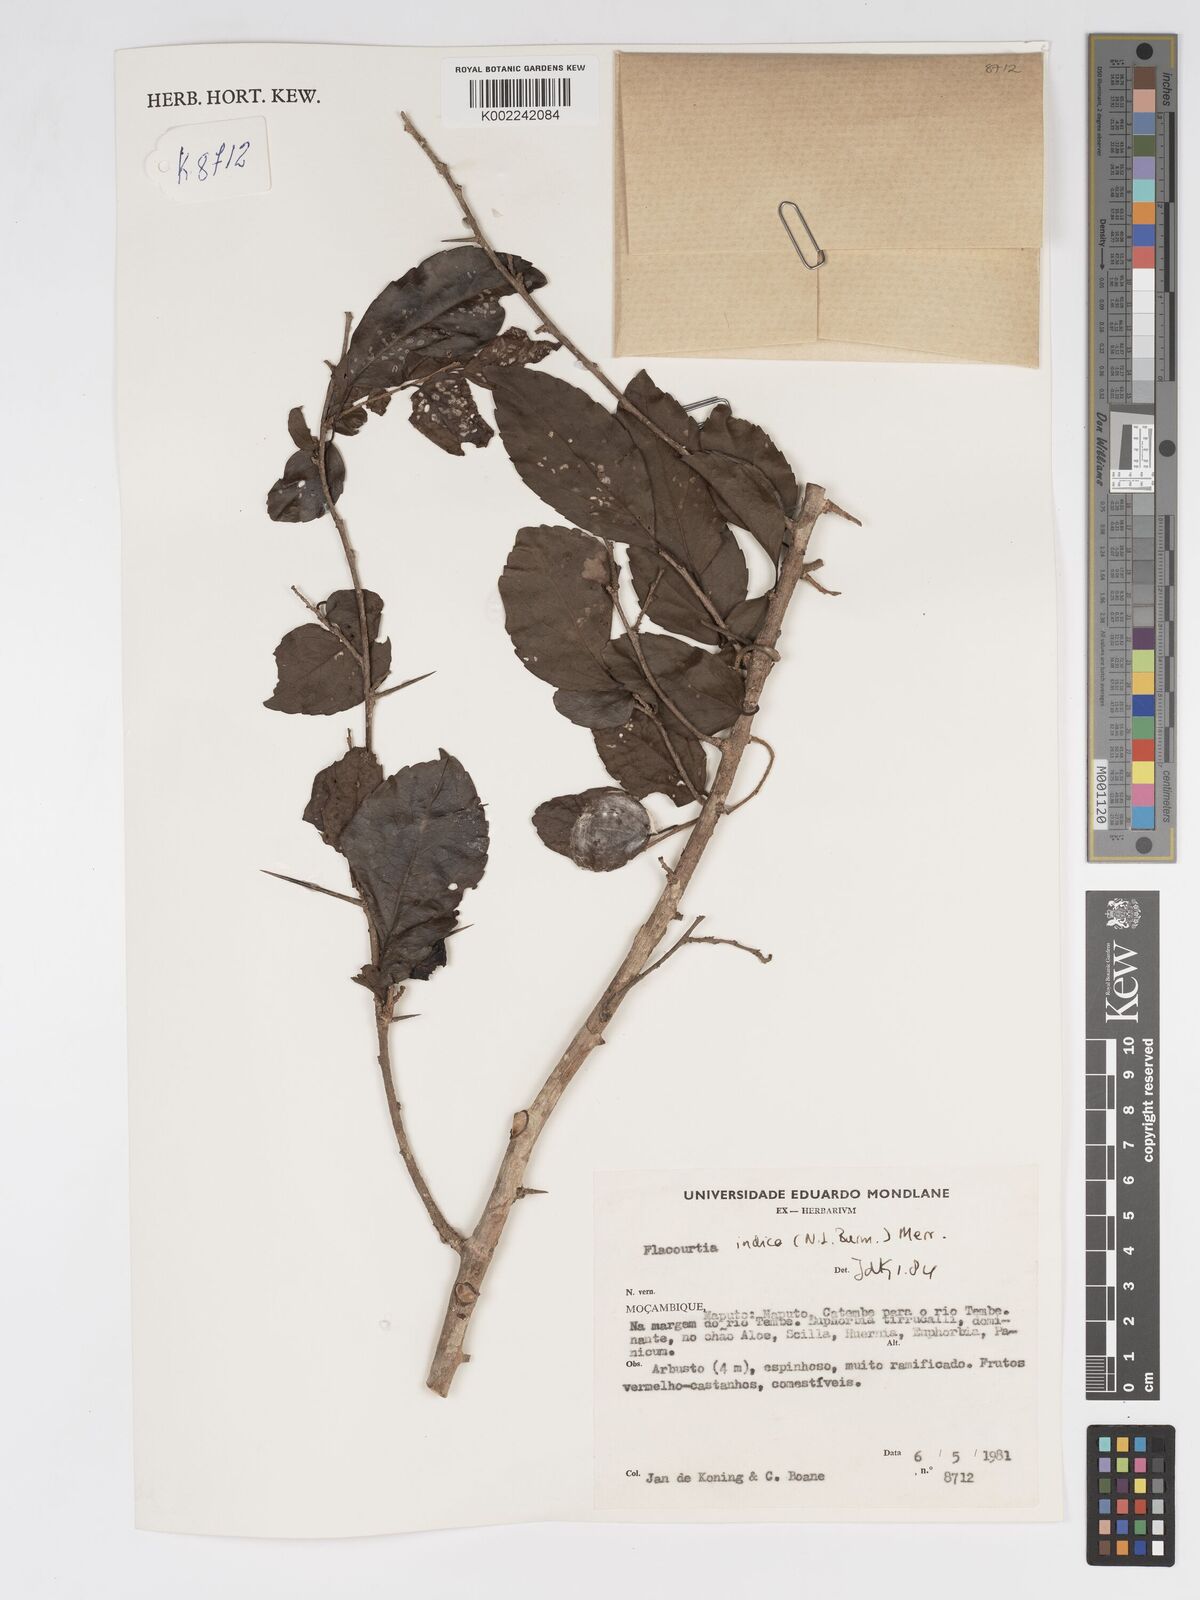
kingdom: Plantae
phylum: Tracheophyta
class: Magnoliopsida
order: Malpighiales
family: Salicaceae
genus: Flacourtia
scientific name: Flacourtia indica
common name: Governor's plum
